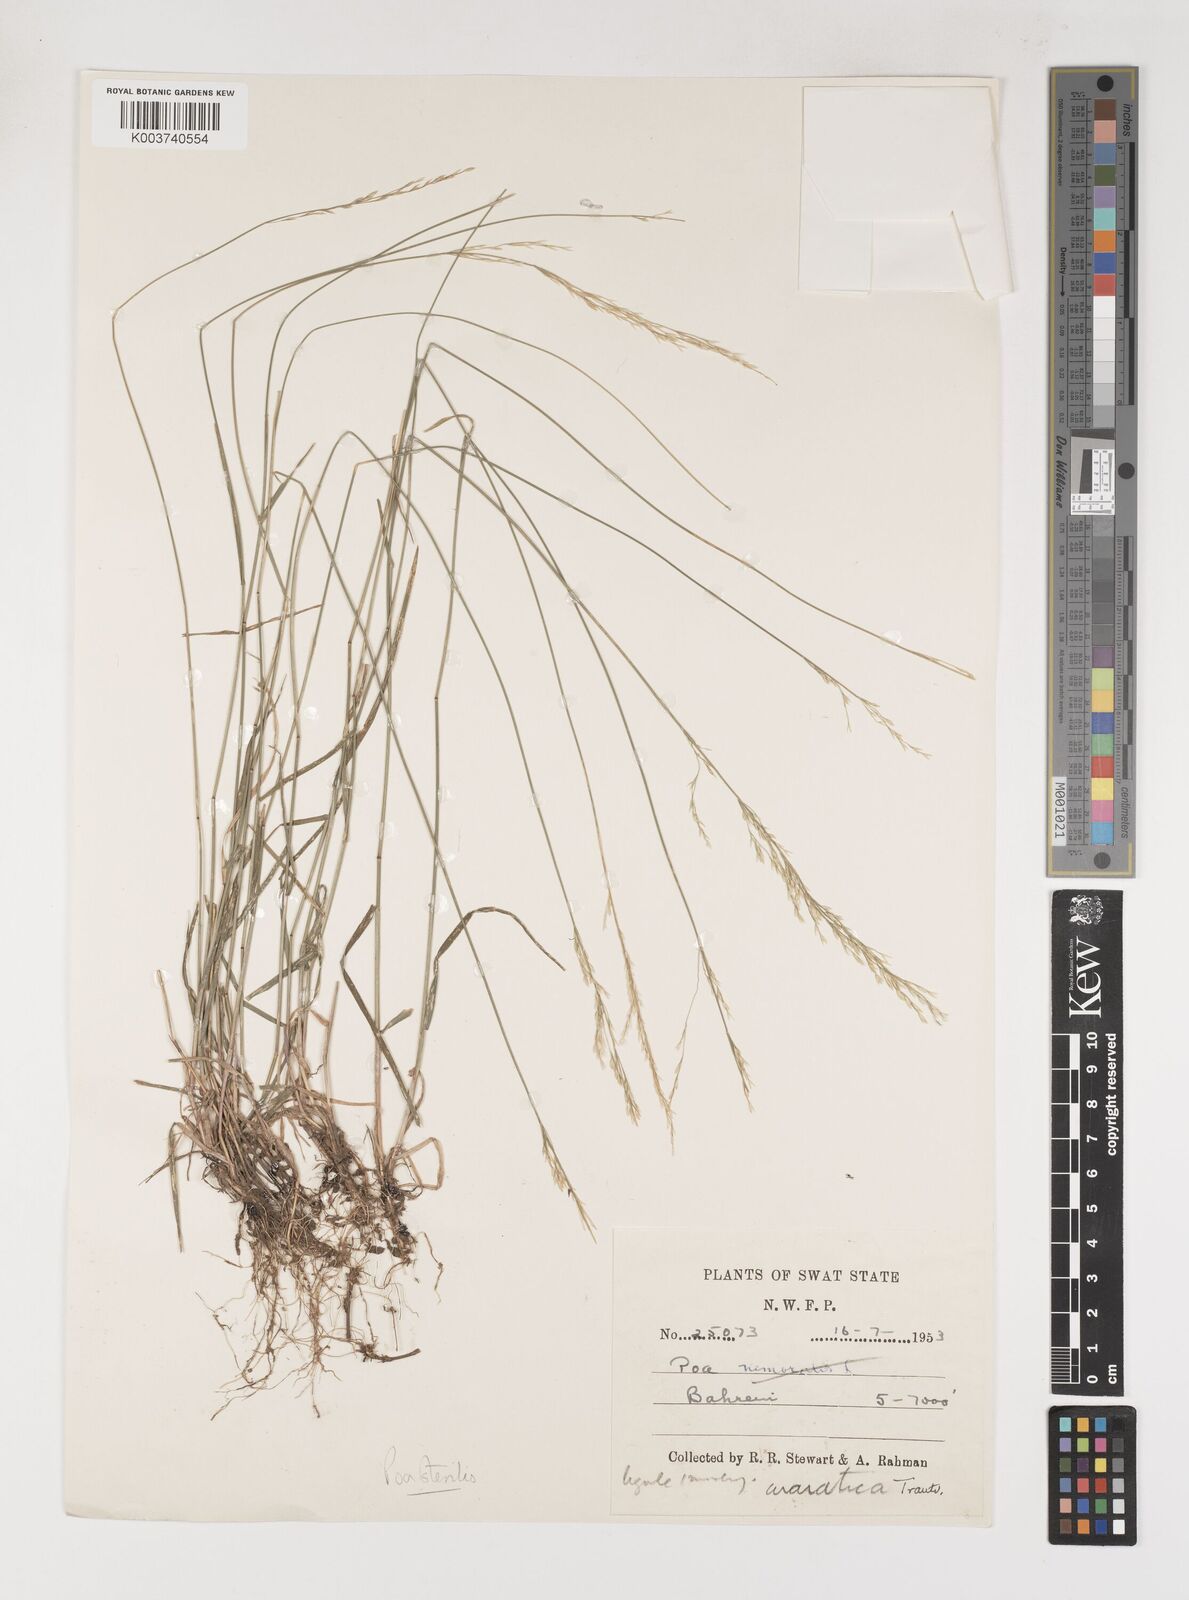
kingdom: Plantae
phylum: Tracheophyta
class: Liliopsida
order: Poales
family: Poaceae
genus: Poa
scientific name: Poa sterilis
